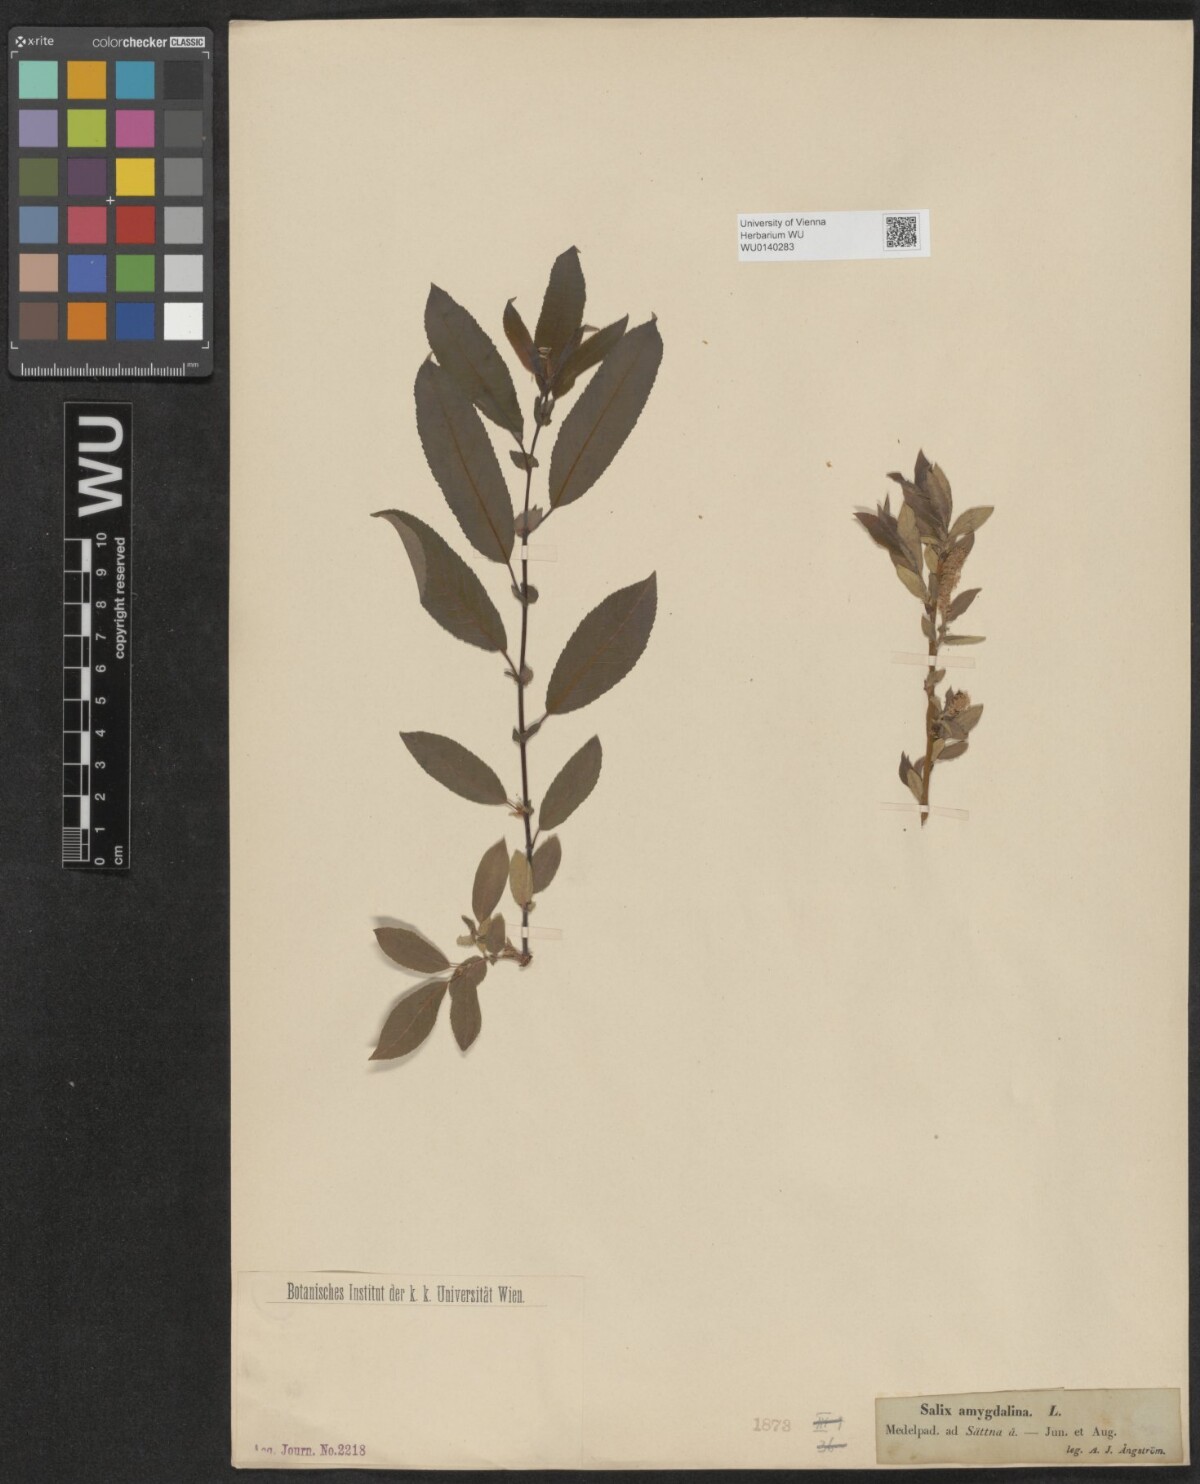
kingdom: Plantae
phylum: Tracheophyta
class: Magnoliopsida
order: Malpighiales
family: Salicaceae
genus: Salix
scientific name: Salix triandra
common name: Almond willow
